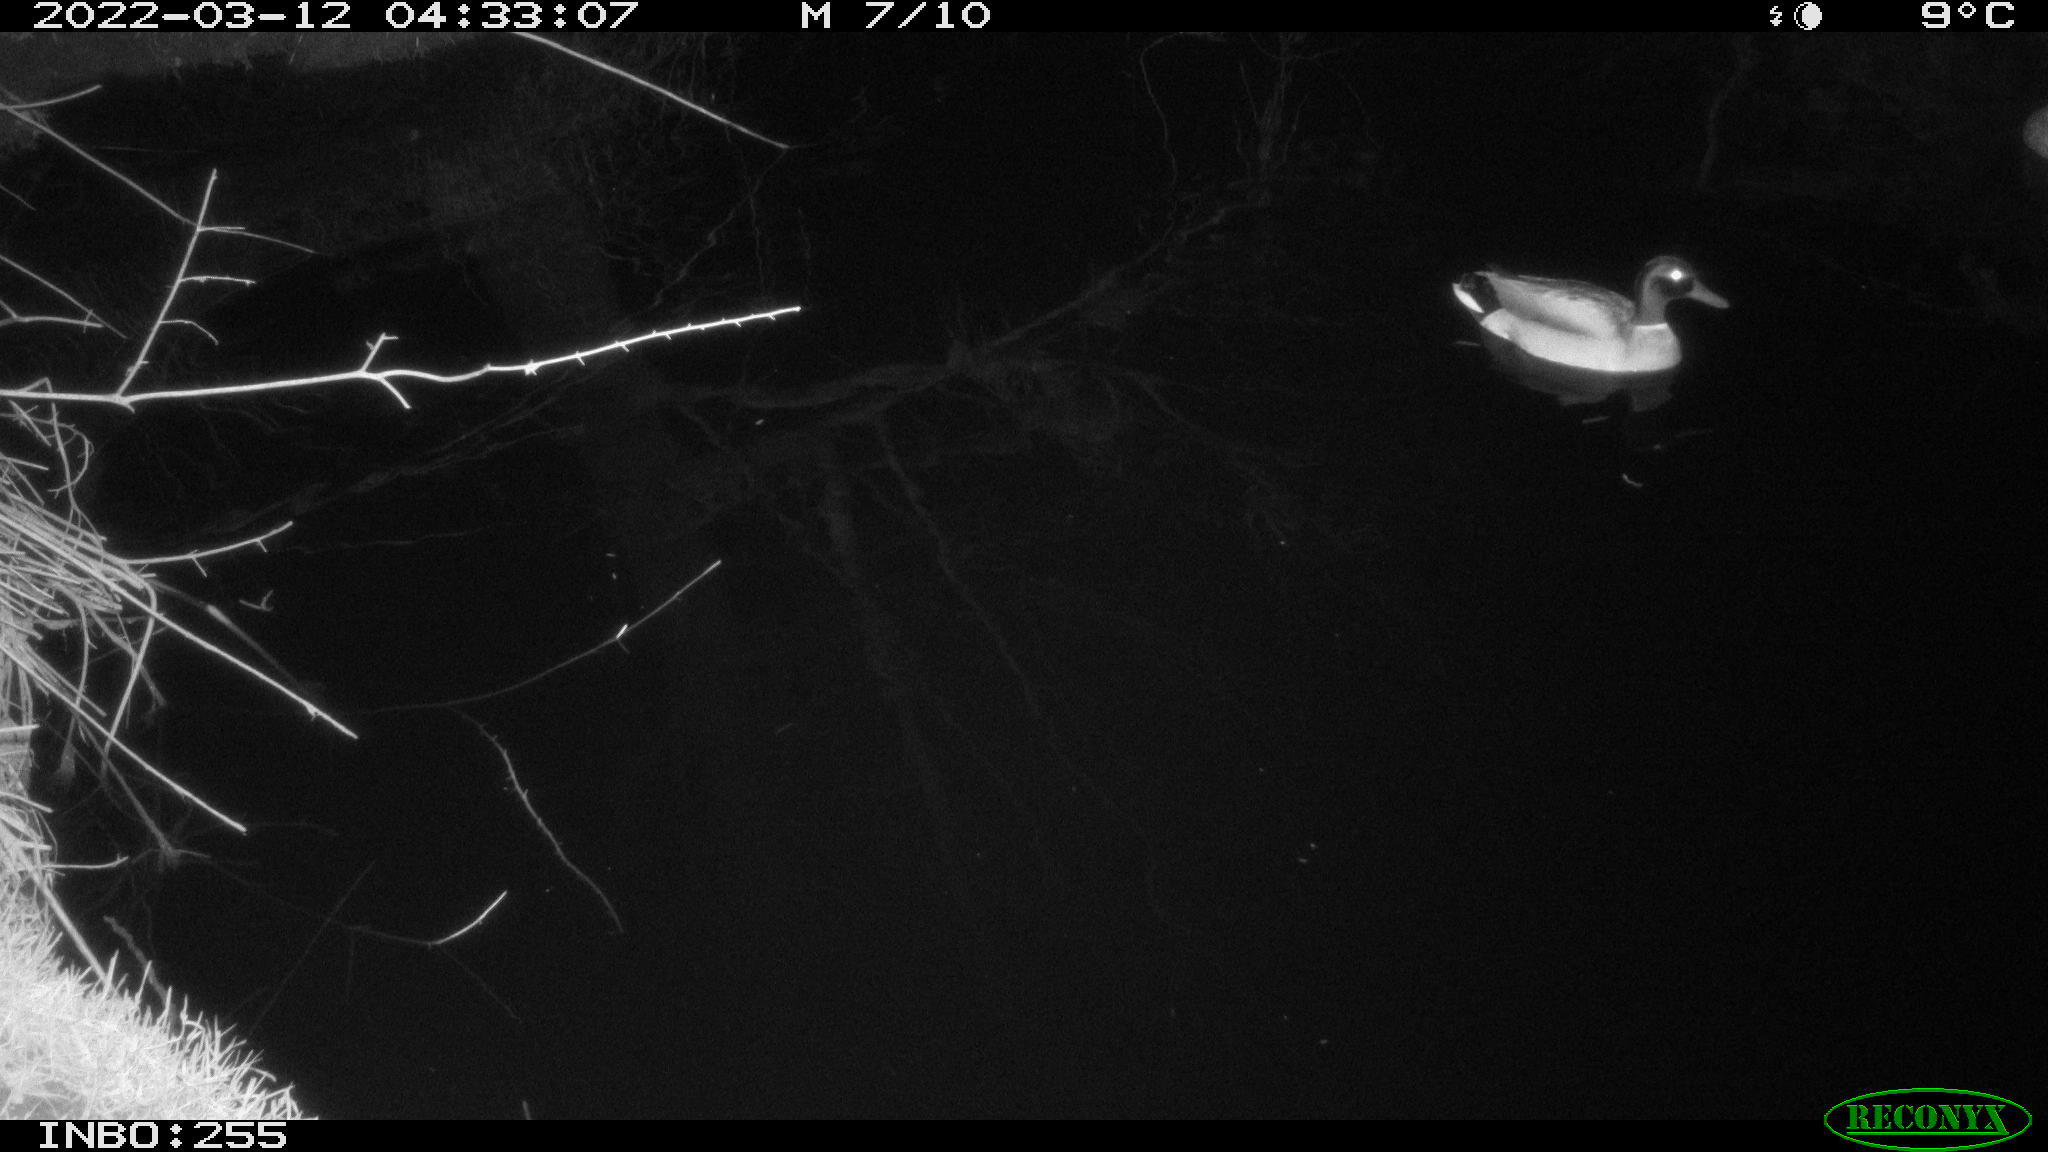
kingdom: Animalia
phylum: Chordata
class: Aves
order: Anseriformes
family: Anatidae
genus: Anas
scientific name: Anas platyrhynchos
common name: Mallard
